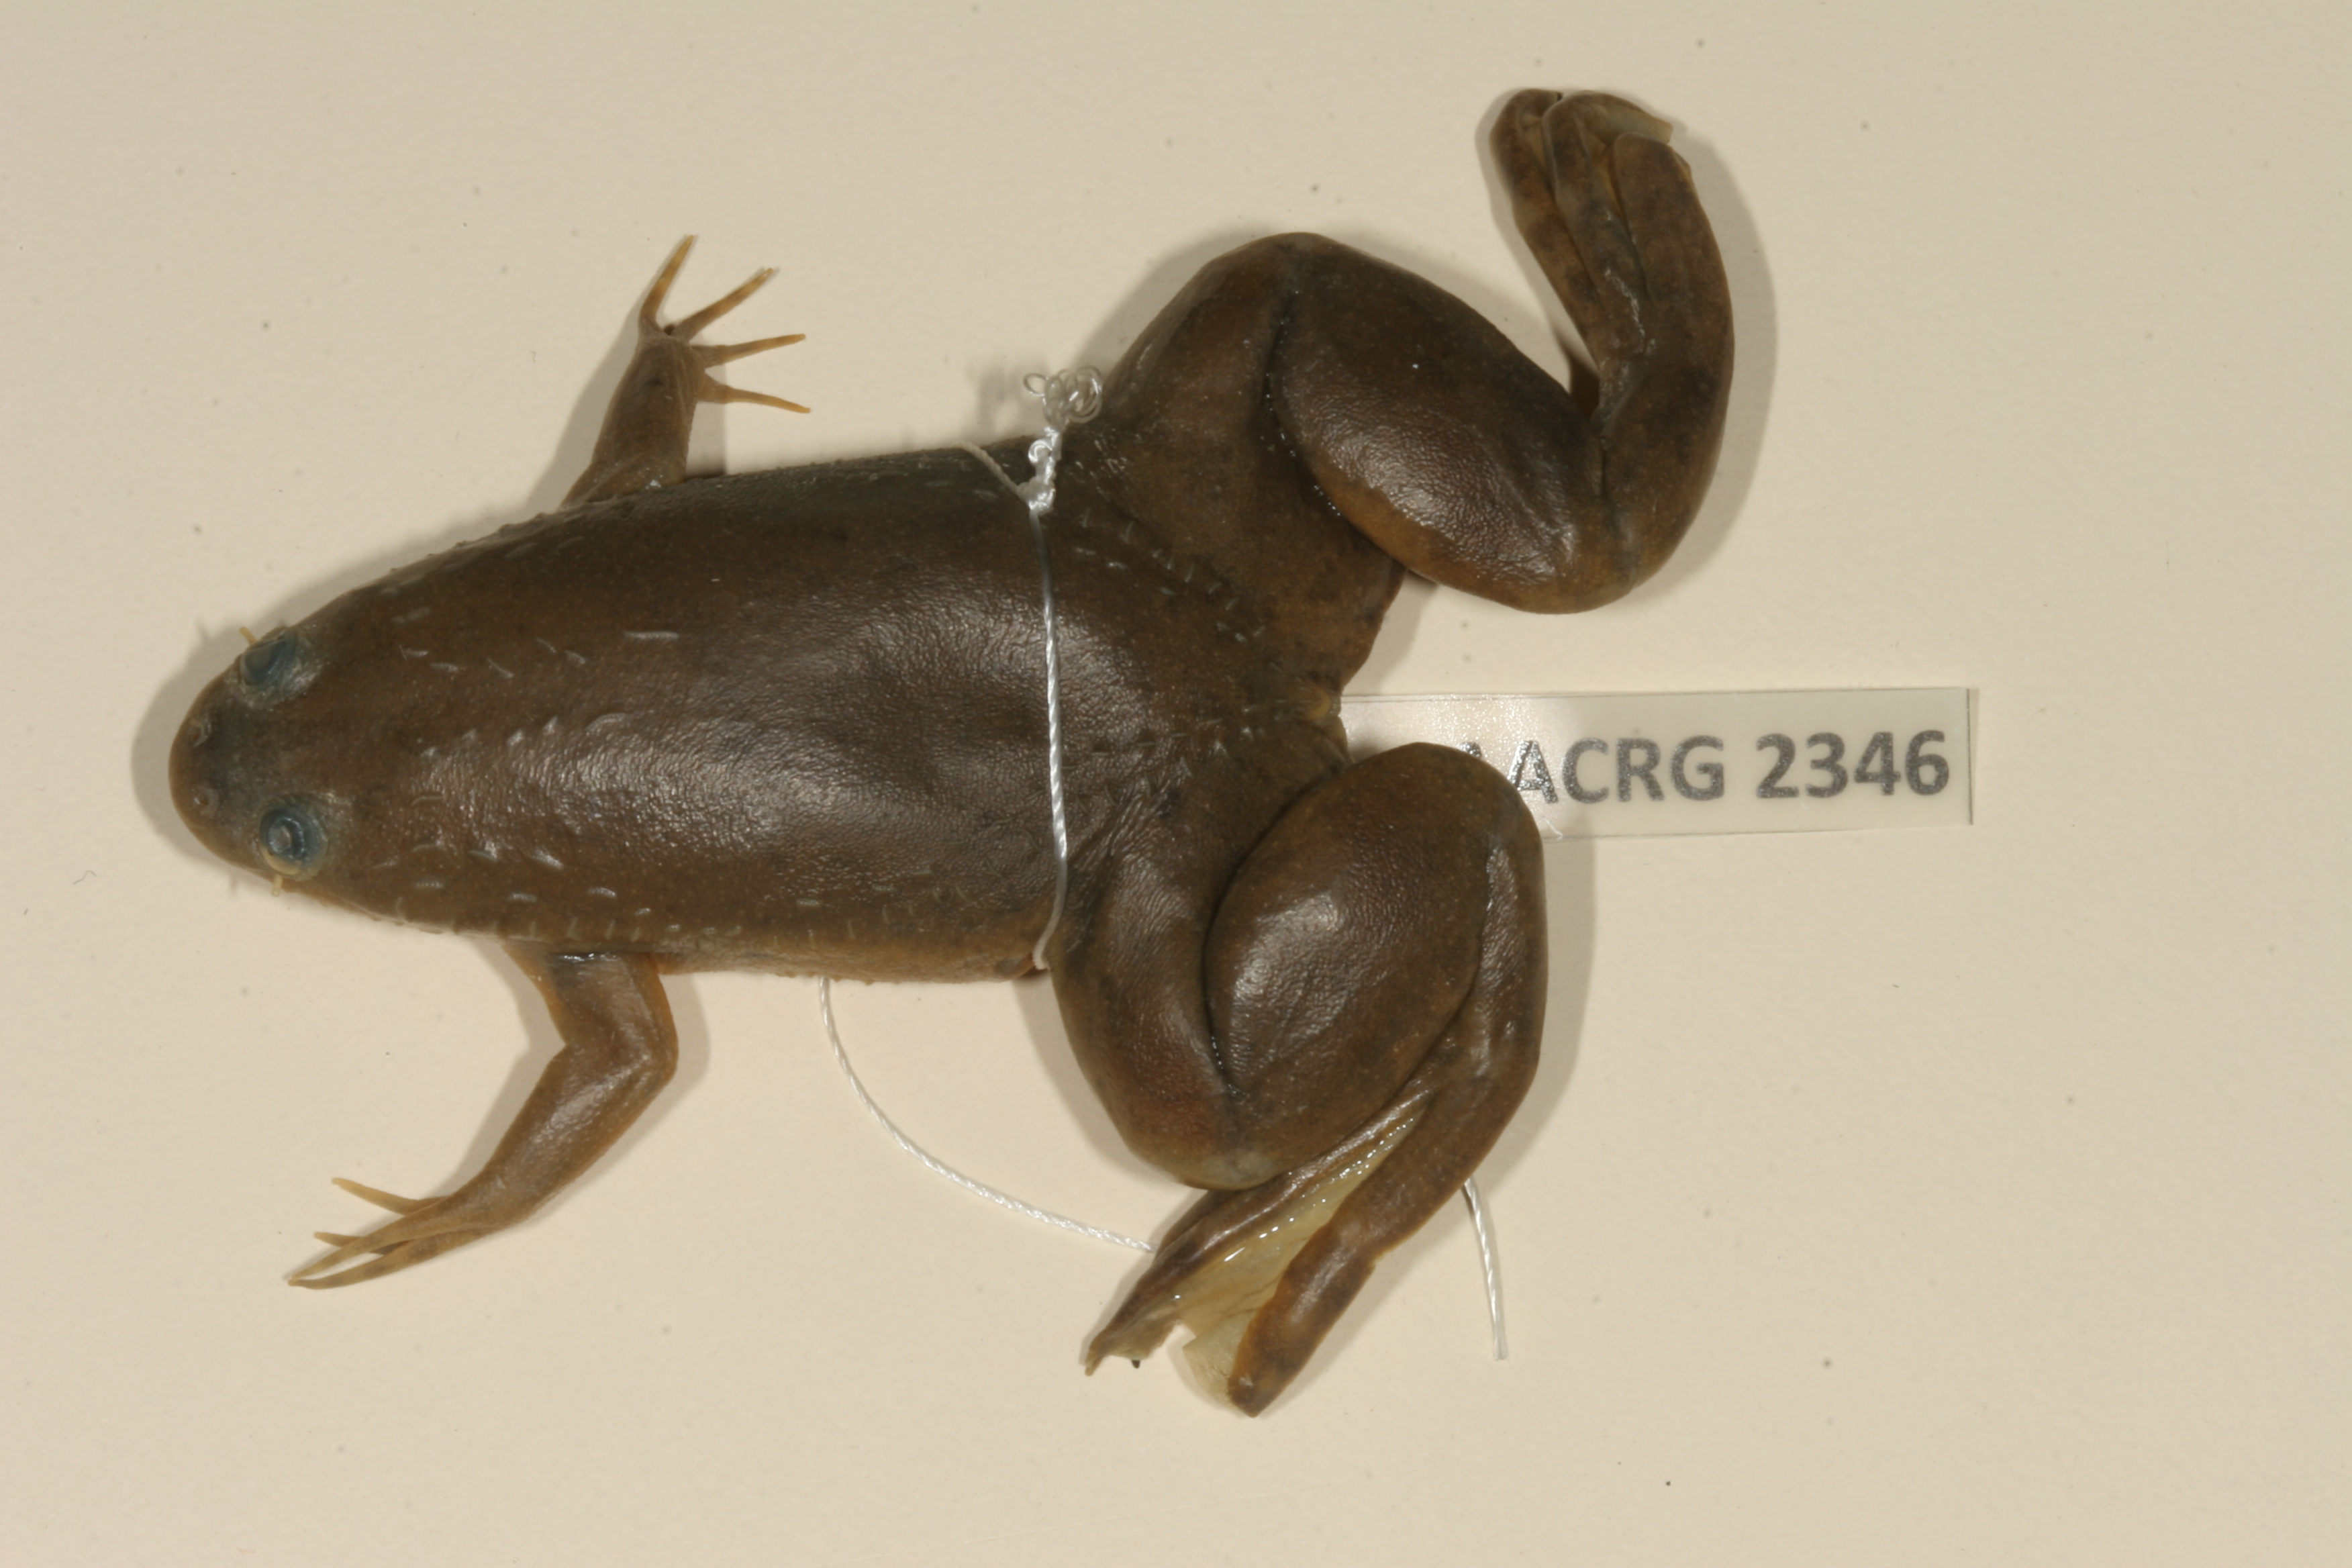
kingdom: Animalia
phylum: Chordata
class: Amphibia
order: Anura
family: Pipidae
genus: Xenopus
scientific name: Xenopus muelleri
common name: Muller's clawed frog
